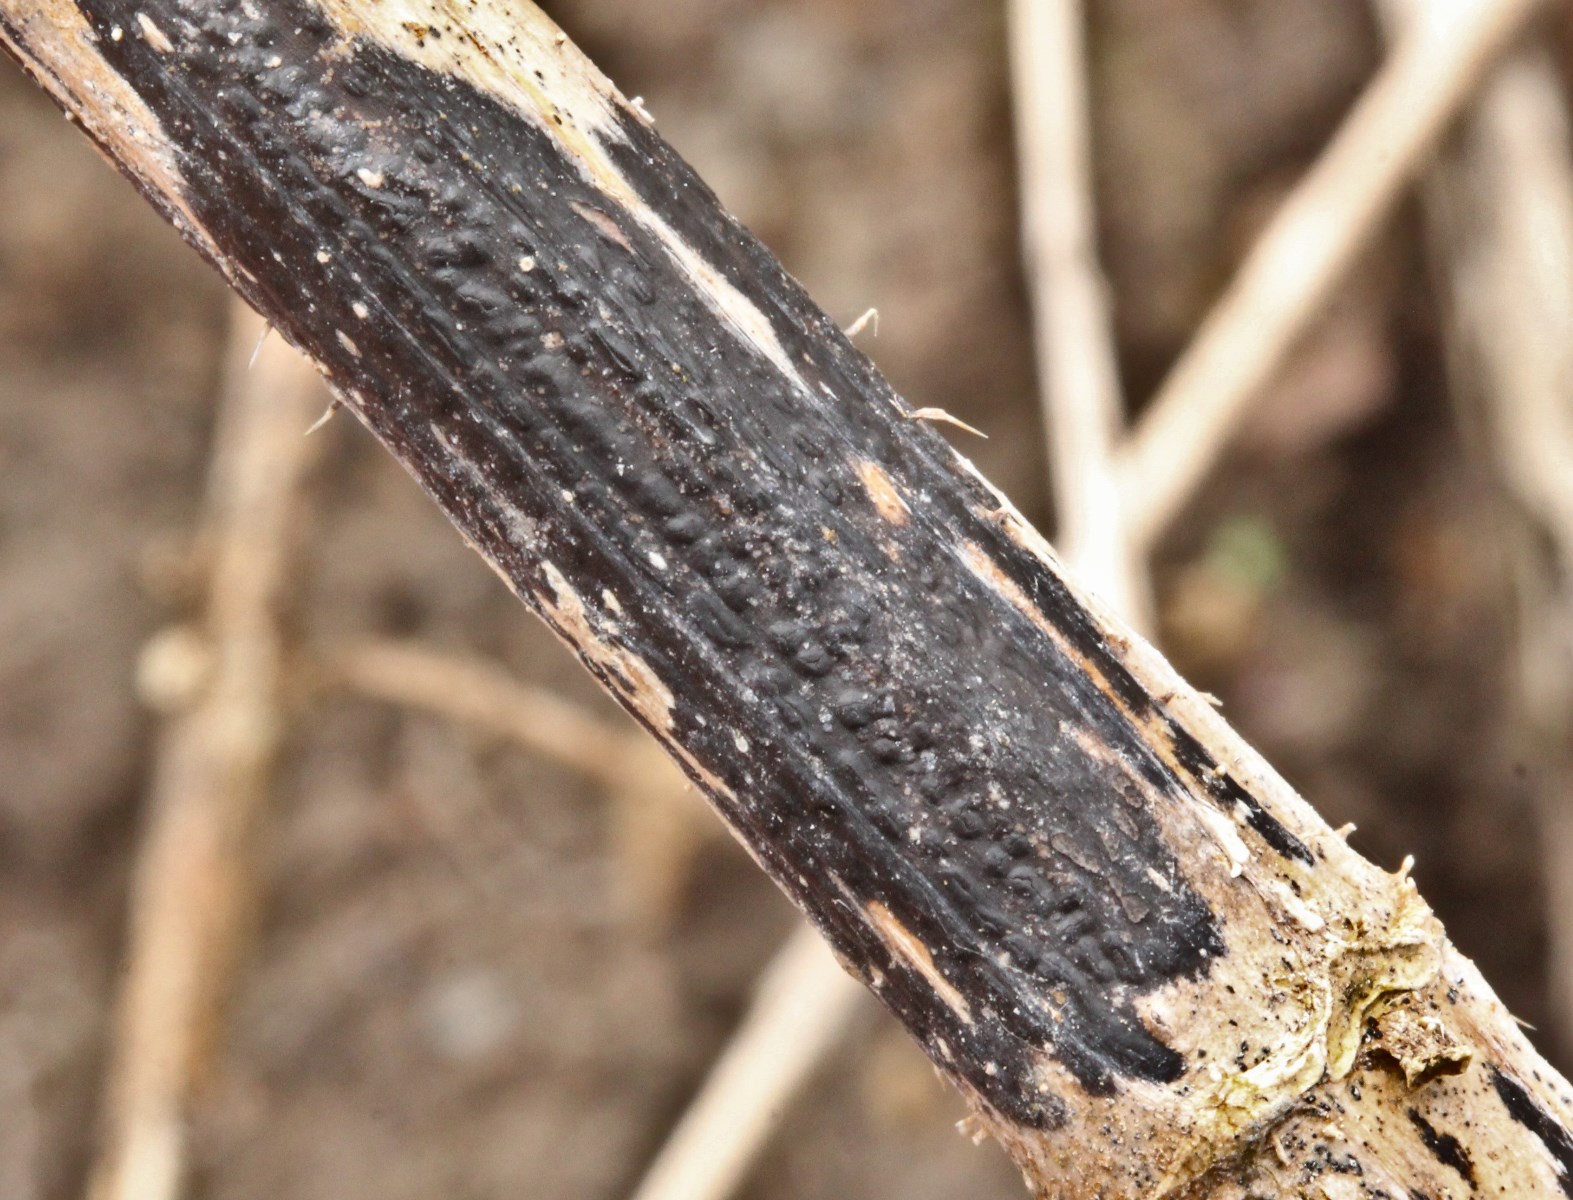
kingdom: Fungi
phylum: Ascomycota
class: Sordariomycetes
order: Diaporthales
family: Diaporthaceae
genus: Diaporthopsis
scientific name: Diaporthopsis urticae
